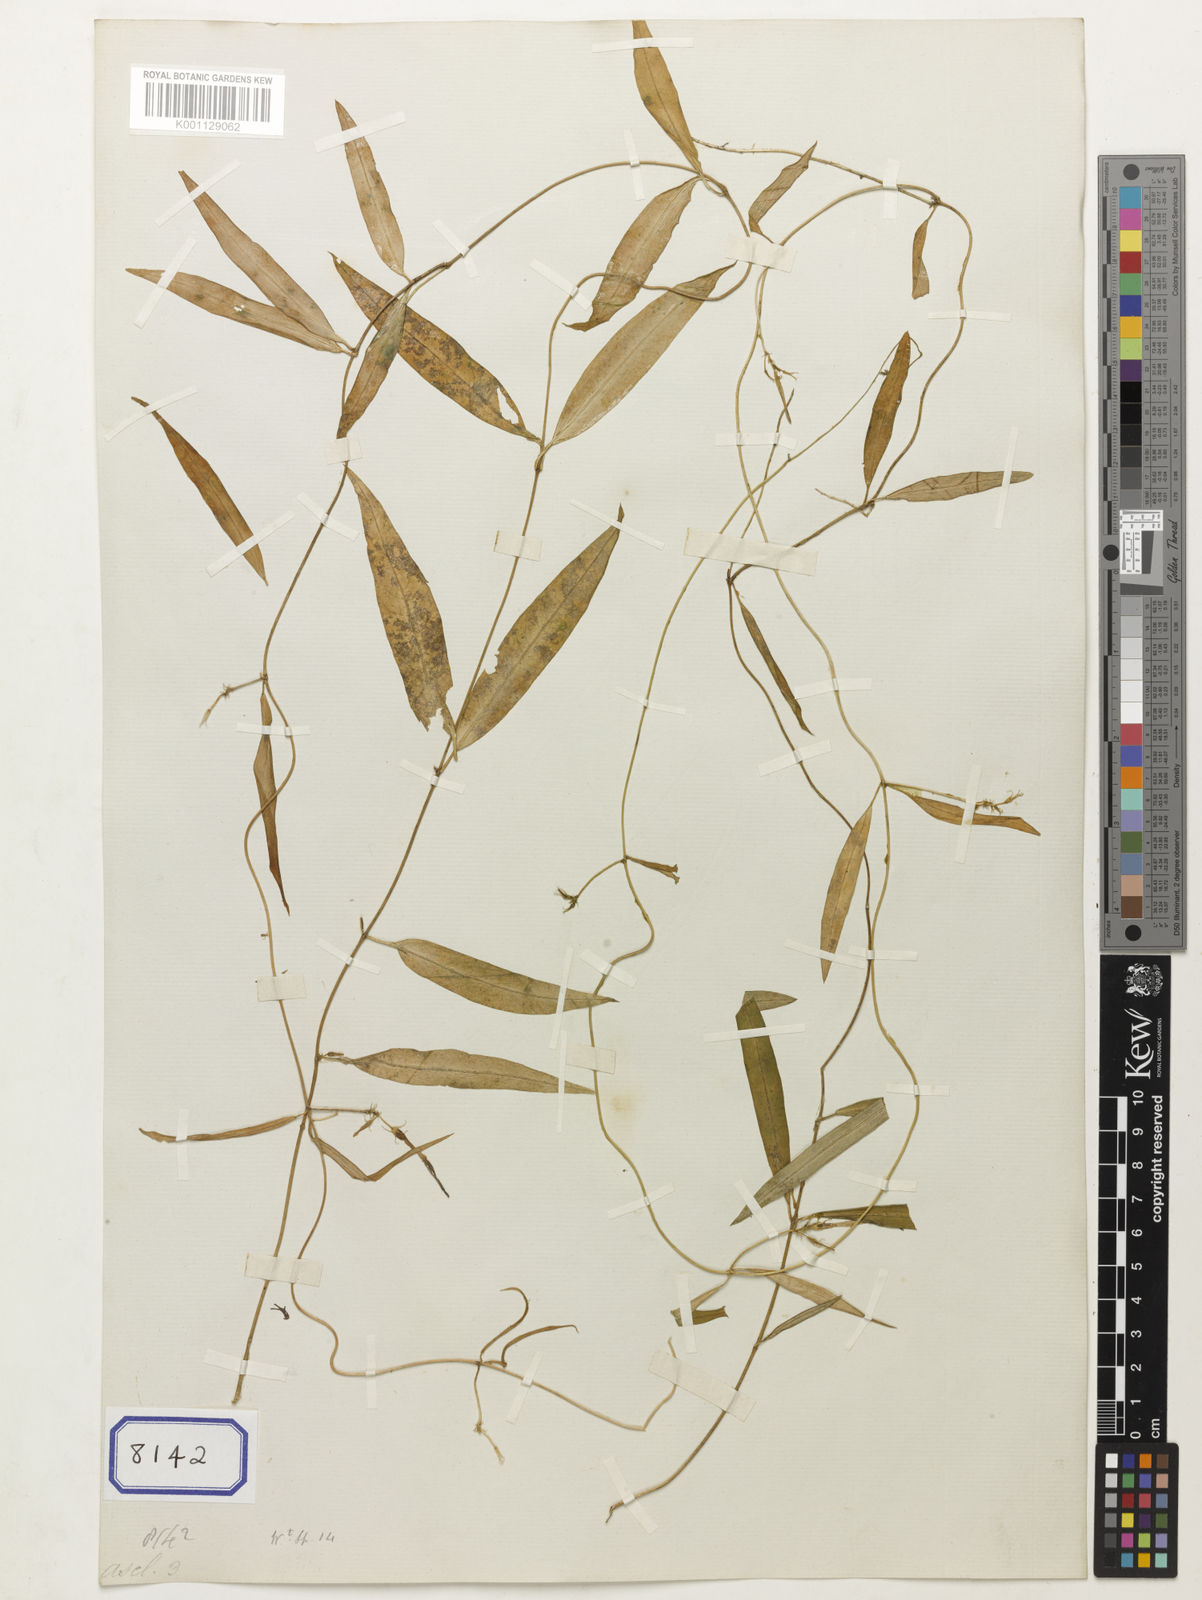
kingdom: Plantae
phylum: Tracheophyta
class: Magnoliopsida
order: Gentianales
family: Apocynaceae
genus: Ceropegia
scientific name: Ceropegia arnottiana
